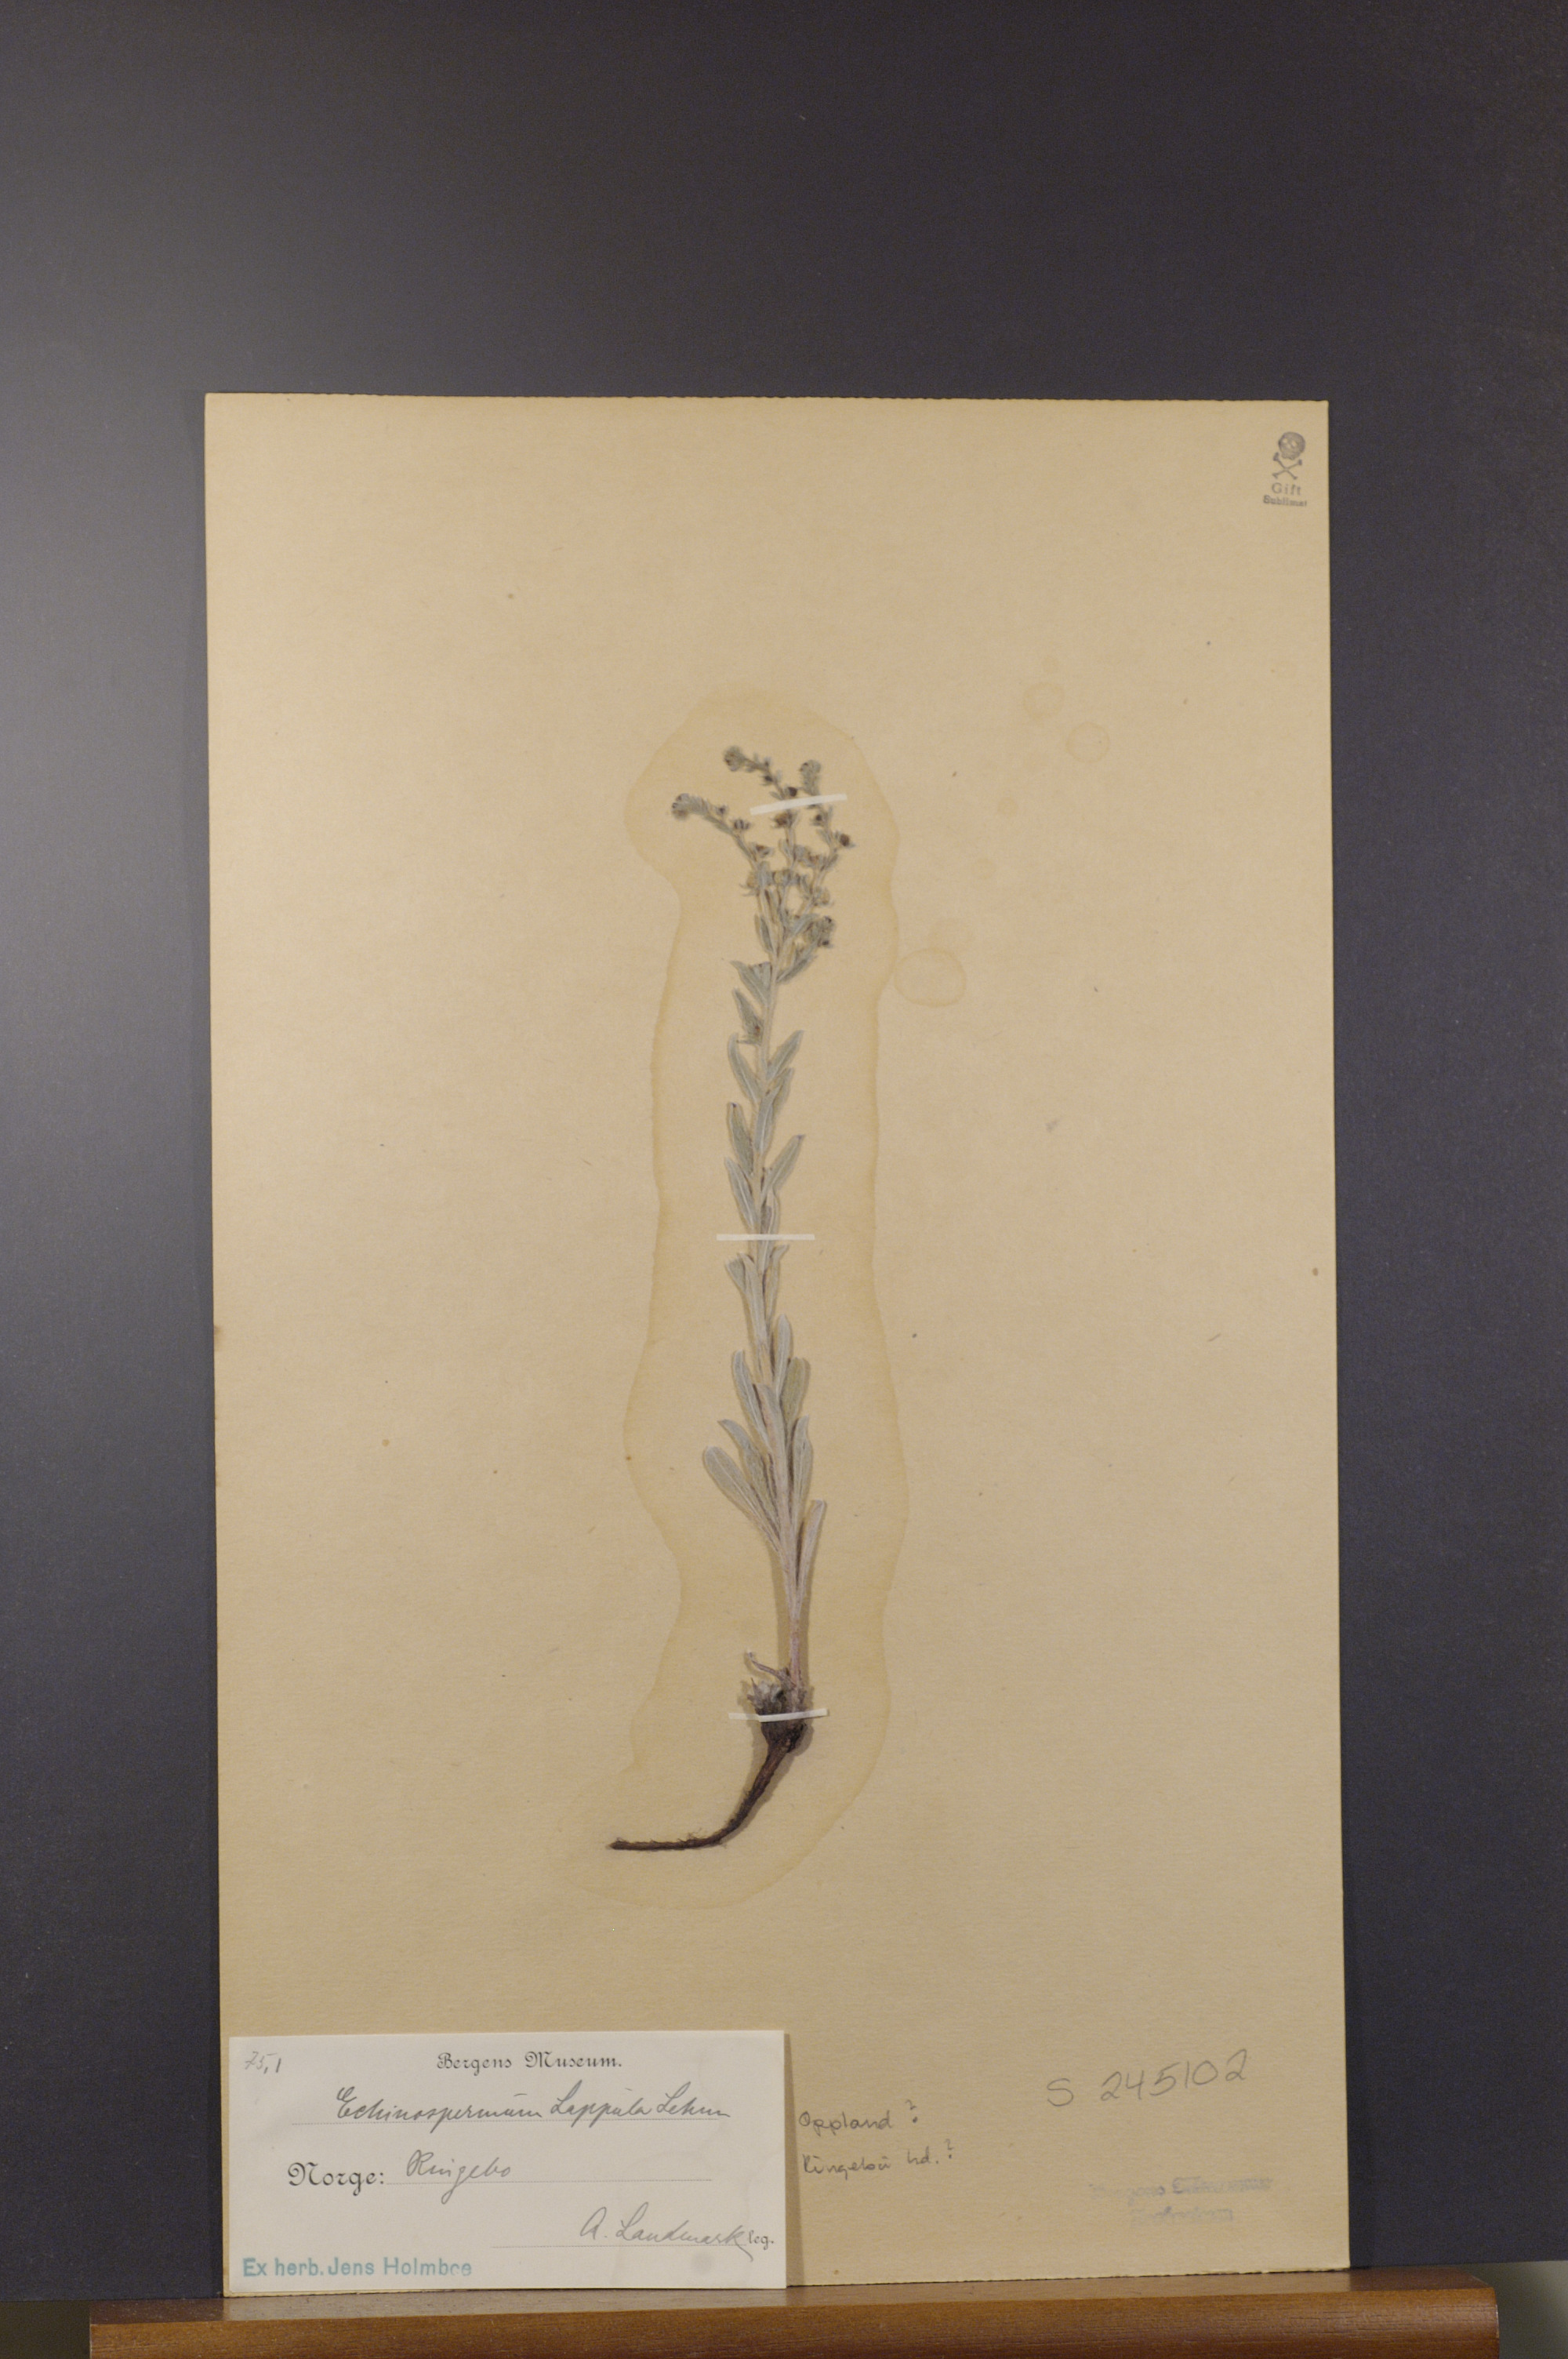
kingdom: Plantae
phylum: Tracheophyta
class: Magnoliopsida
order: Boraginales
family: Boraginaceae
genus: Lappula
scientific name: Lappula squarrosa
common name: European stickseed
